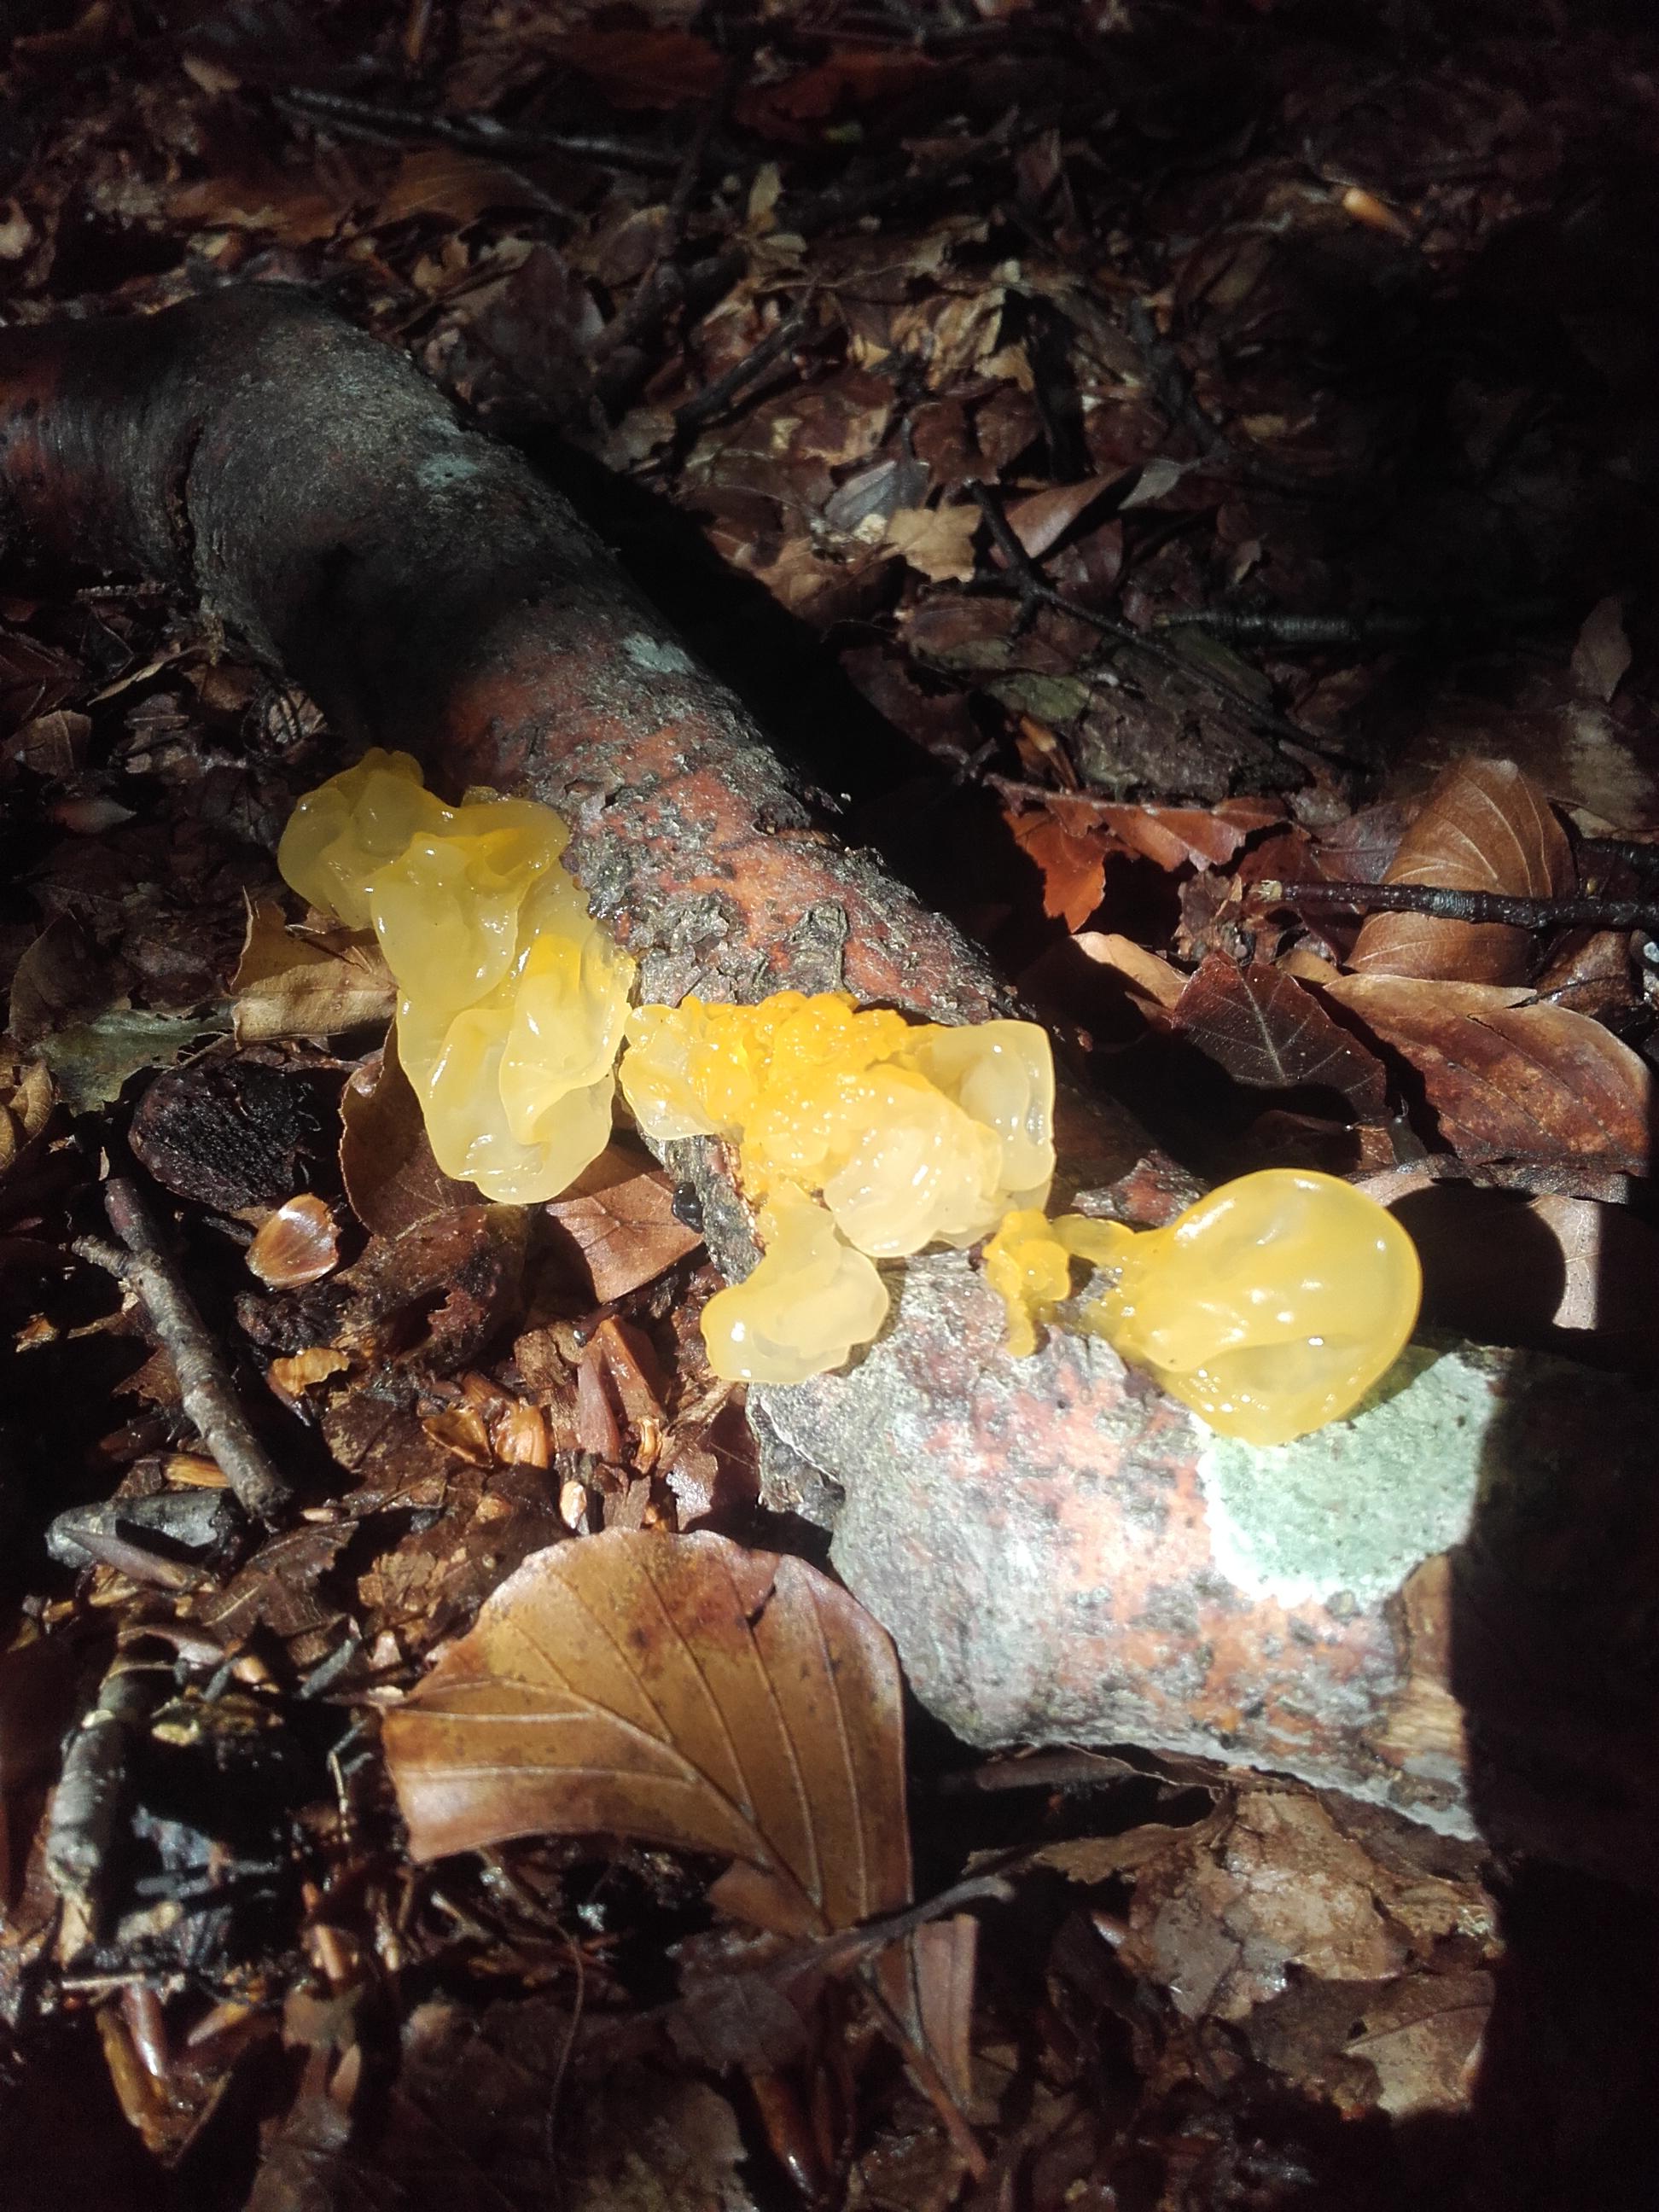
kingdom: Fungi
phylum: Basidiomycota
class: Tremellomycetes
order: Tremellales
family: Tremellaceae
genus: Tremella
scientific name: Tremella mesenterica
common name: gul bævresvamp
